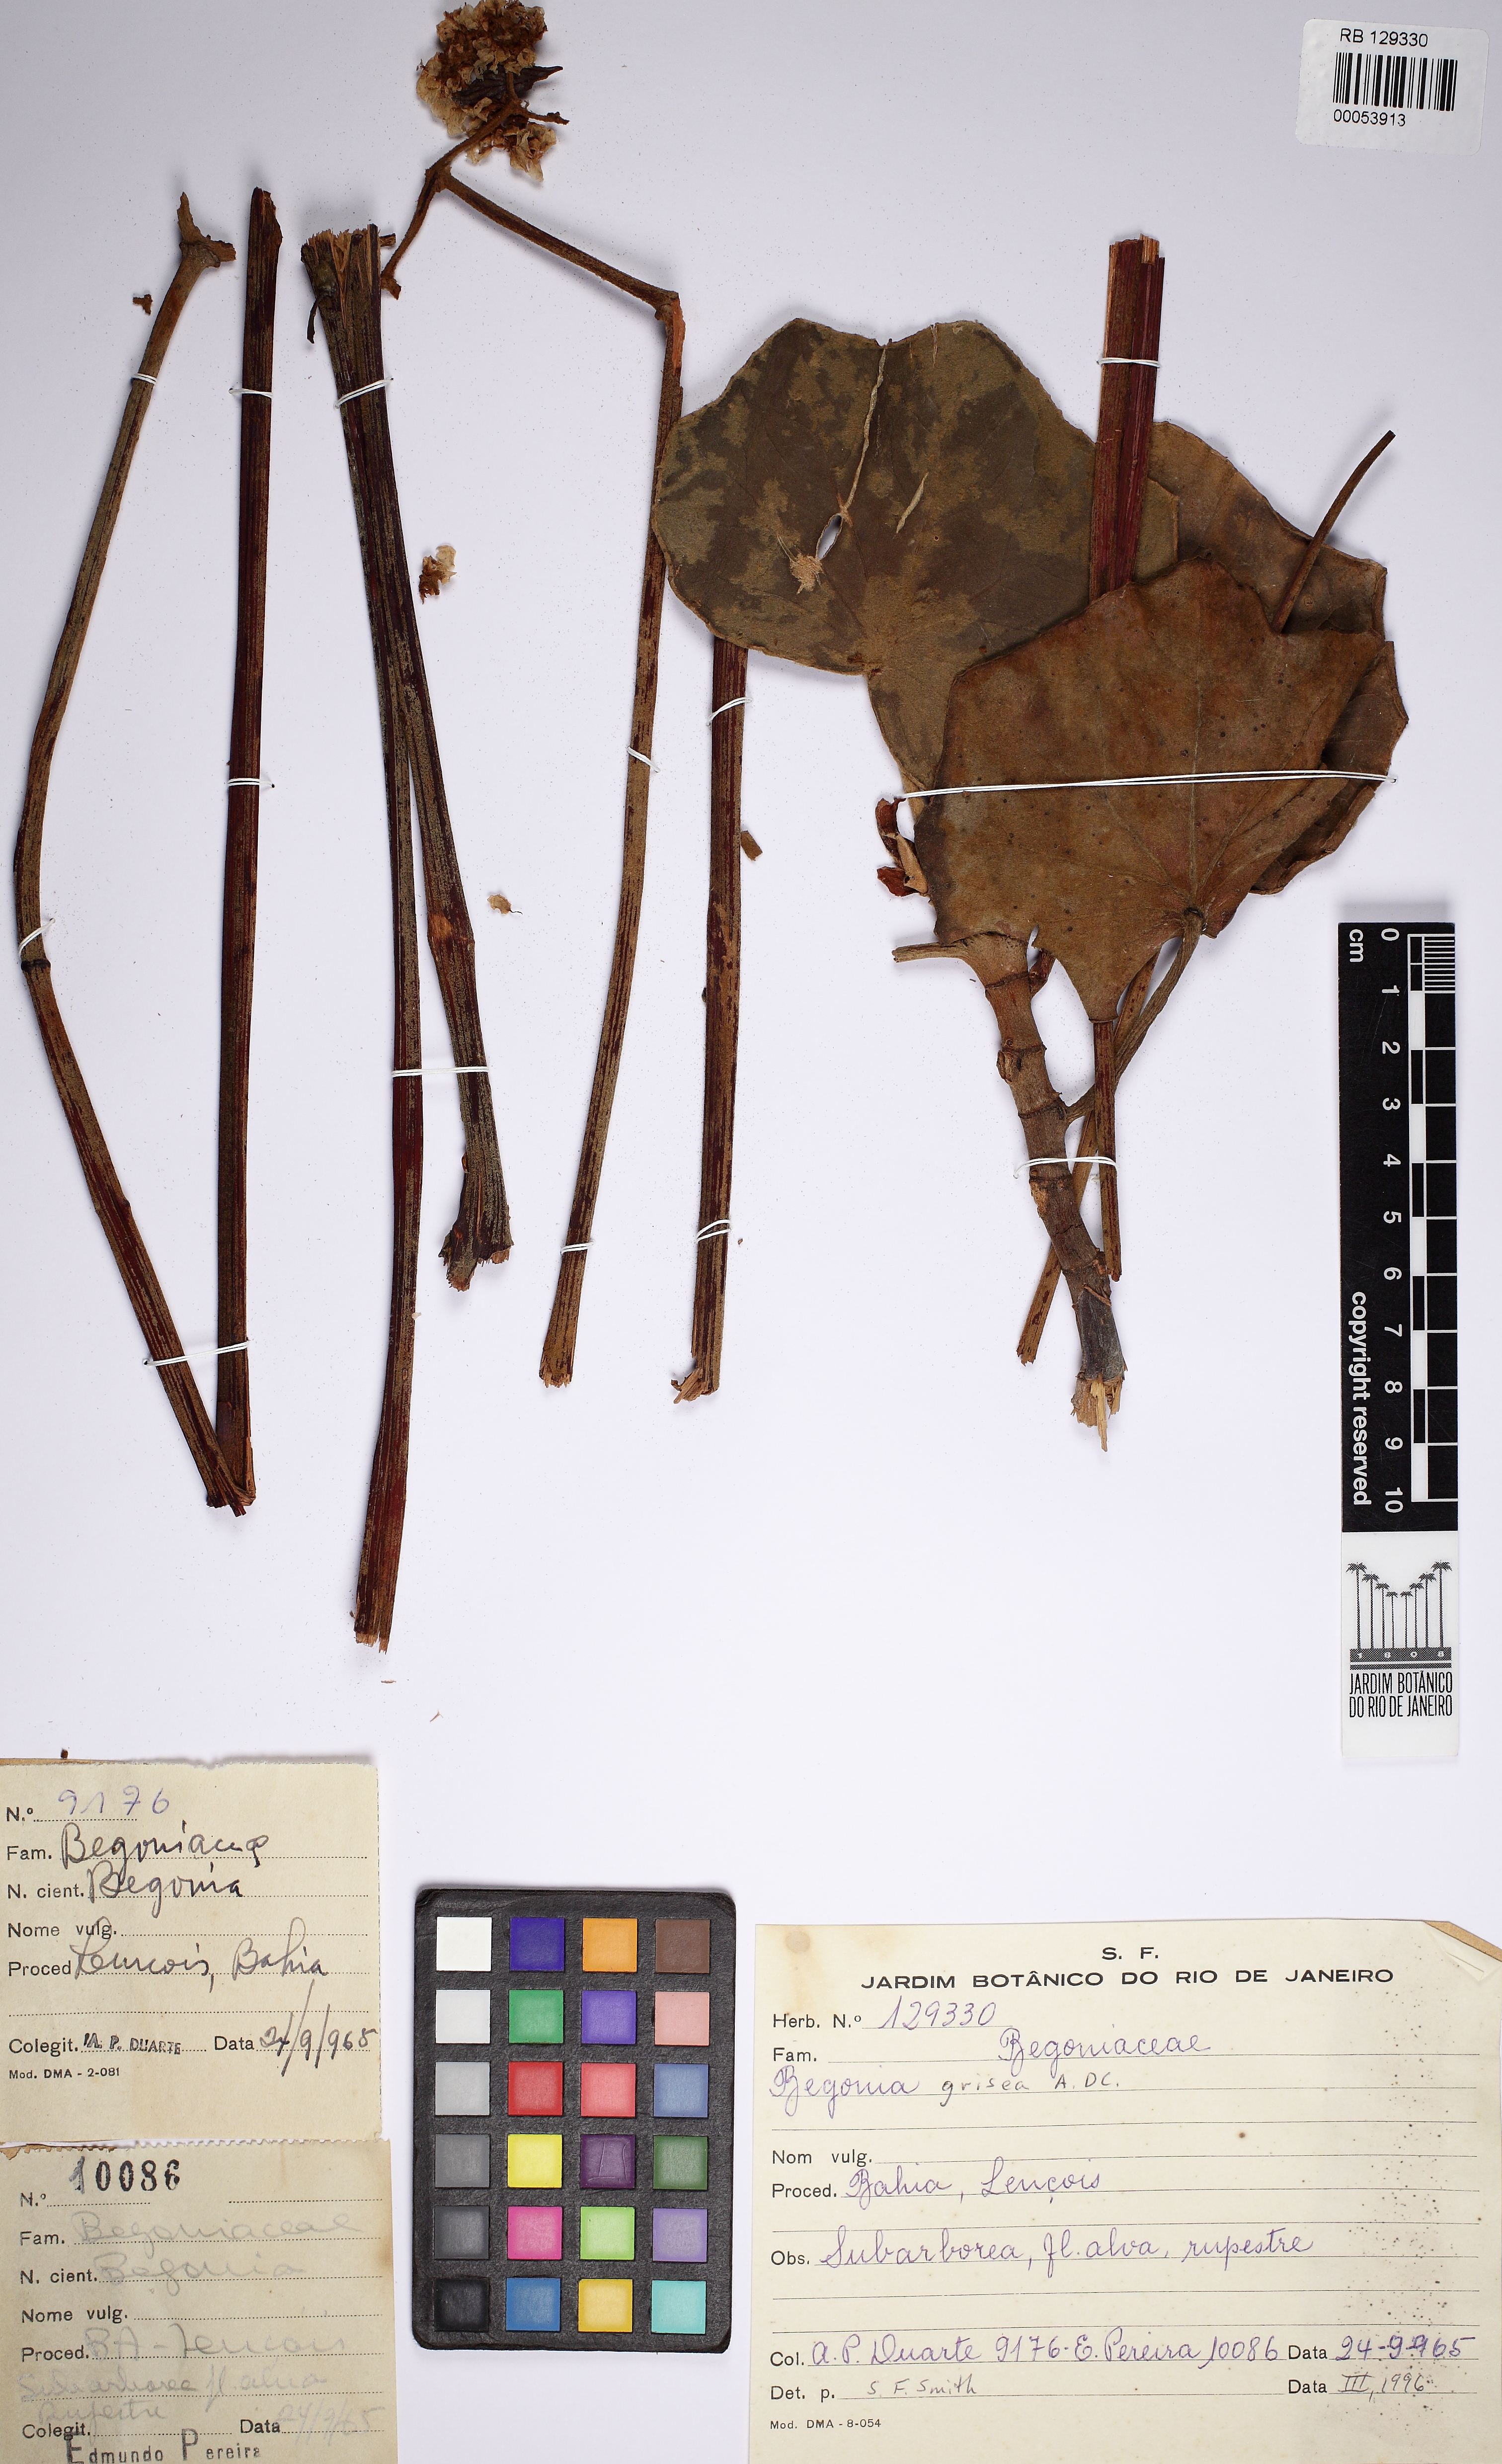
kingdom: Plantae
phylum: Tracheophyta
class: Magnoliopsida
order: Cucurbitales
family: Begoniaceae
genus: Begonia
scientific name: Begonia grisea
